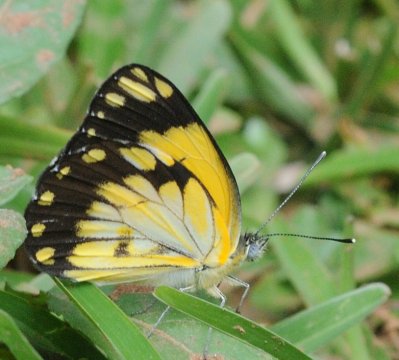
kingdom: Animalia
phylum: Arthropoda
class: Insecta
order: Lepidoptera
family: Pieridae
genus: Belenois
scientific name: Belenois creona
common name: African Caper
